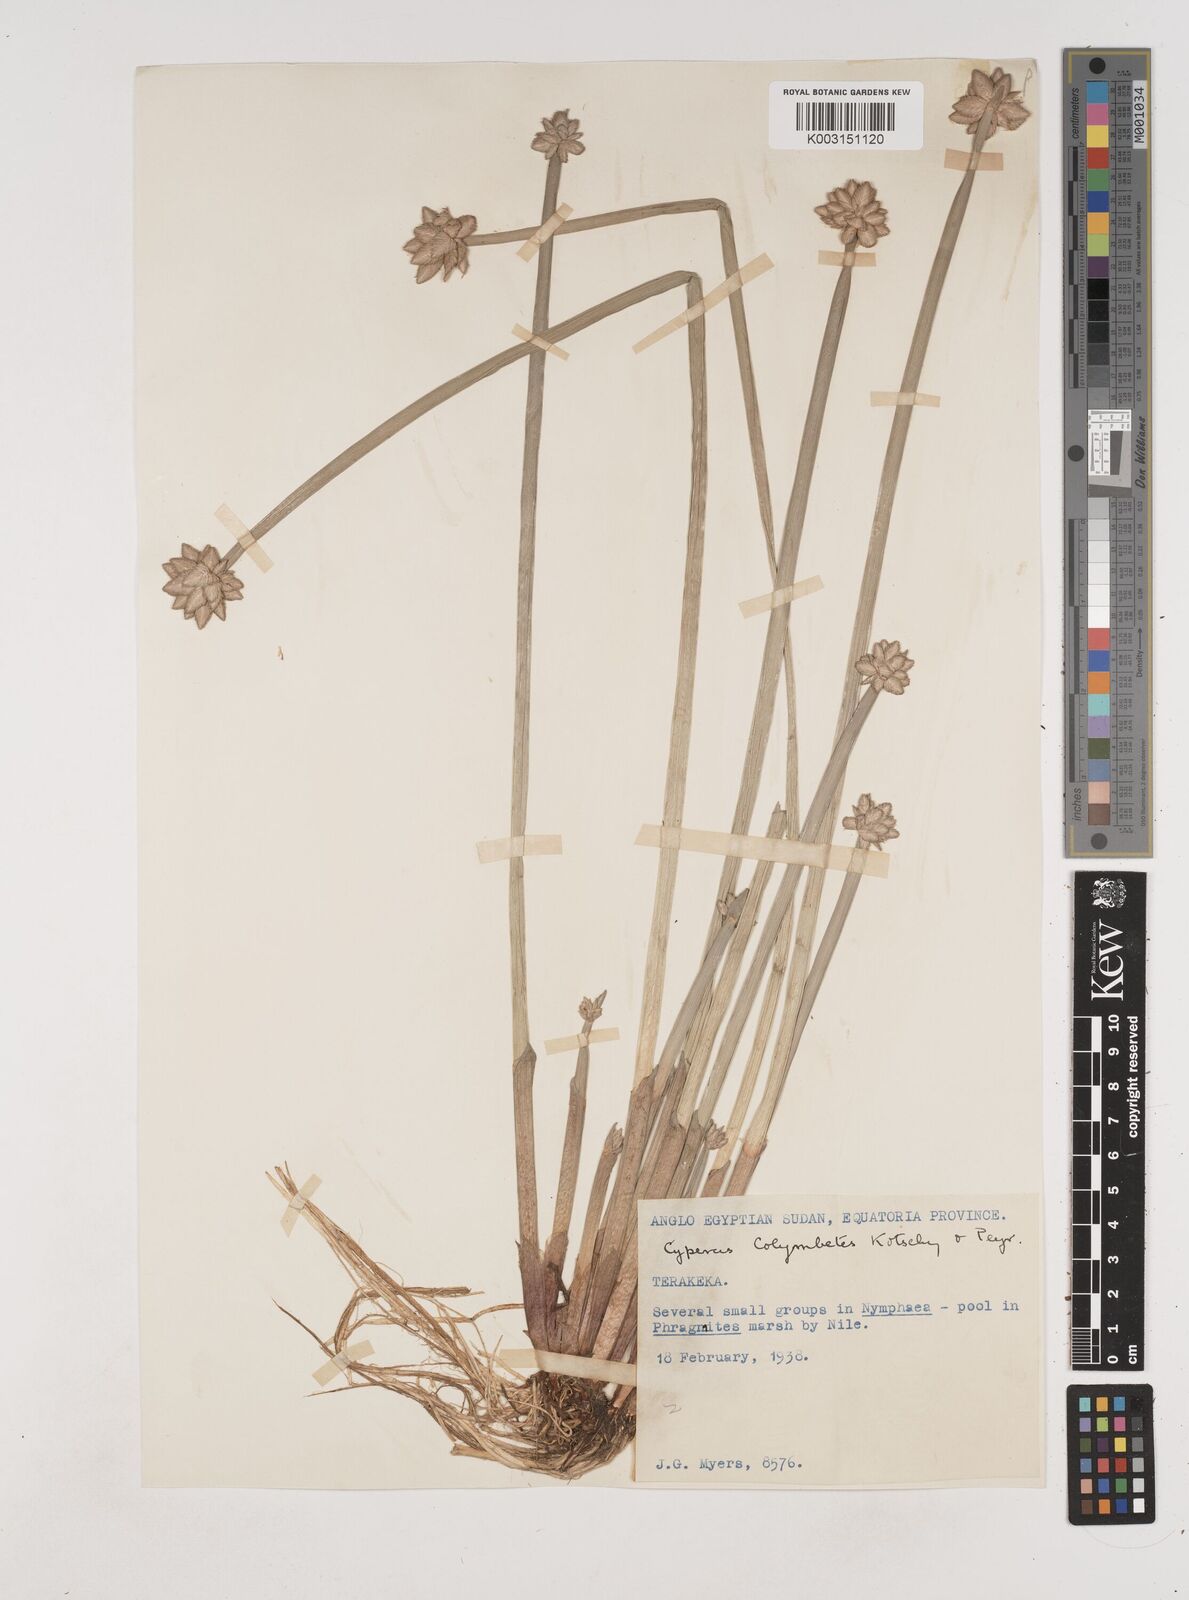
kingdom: Plantae
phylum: Tracheophyta
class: Liliopsida
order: Poales
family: Cyperaceae
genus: Cyperus
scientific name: Cyperus colymbetes
